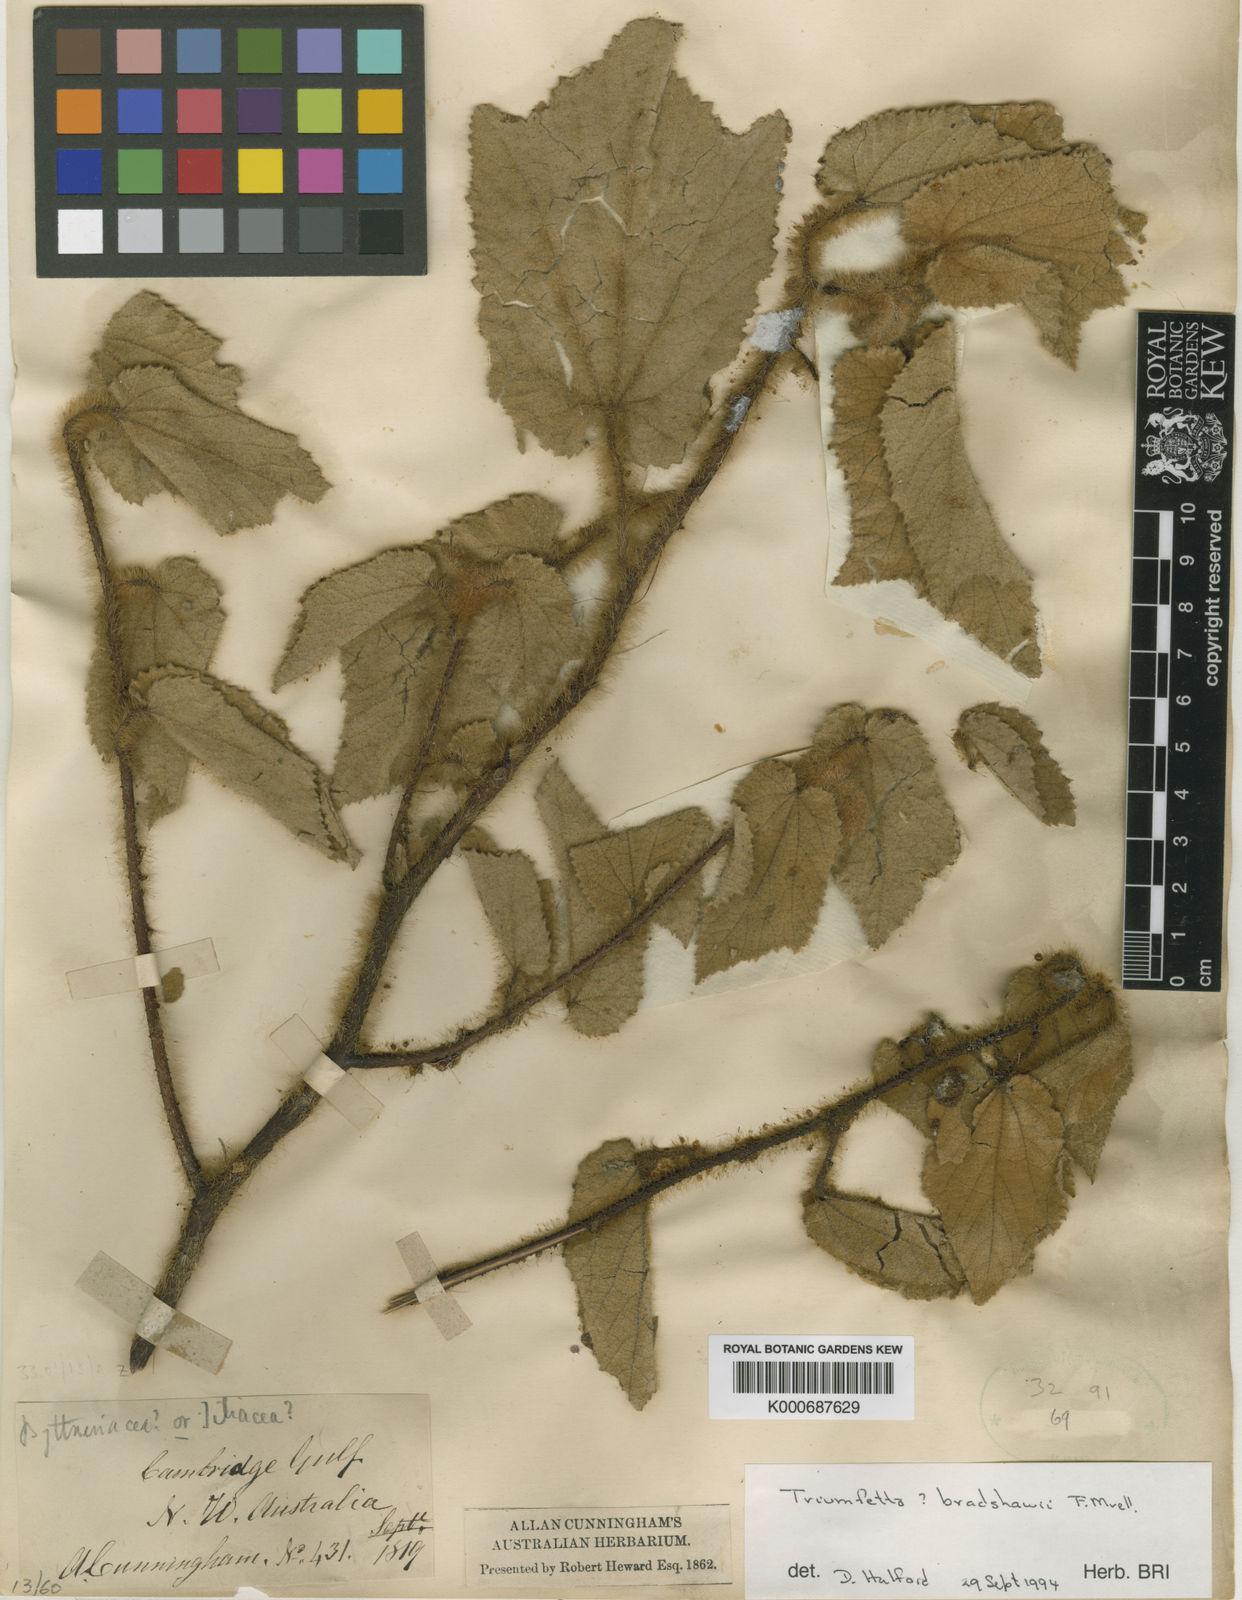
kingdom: Plantae
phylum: Tracheophyta
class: Magnoliopsida
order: Malvales
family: Malvaceae
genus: Triumfetta
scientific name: Triumfetta bradshawii
